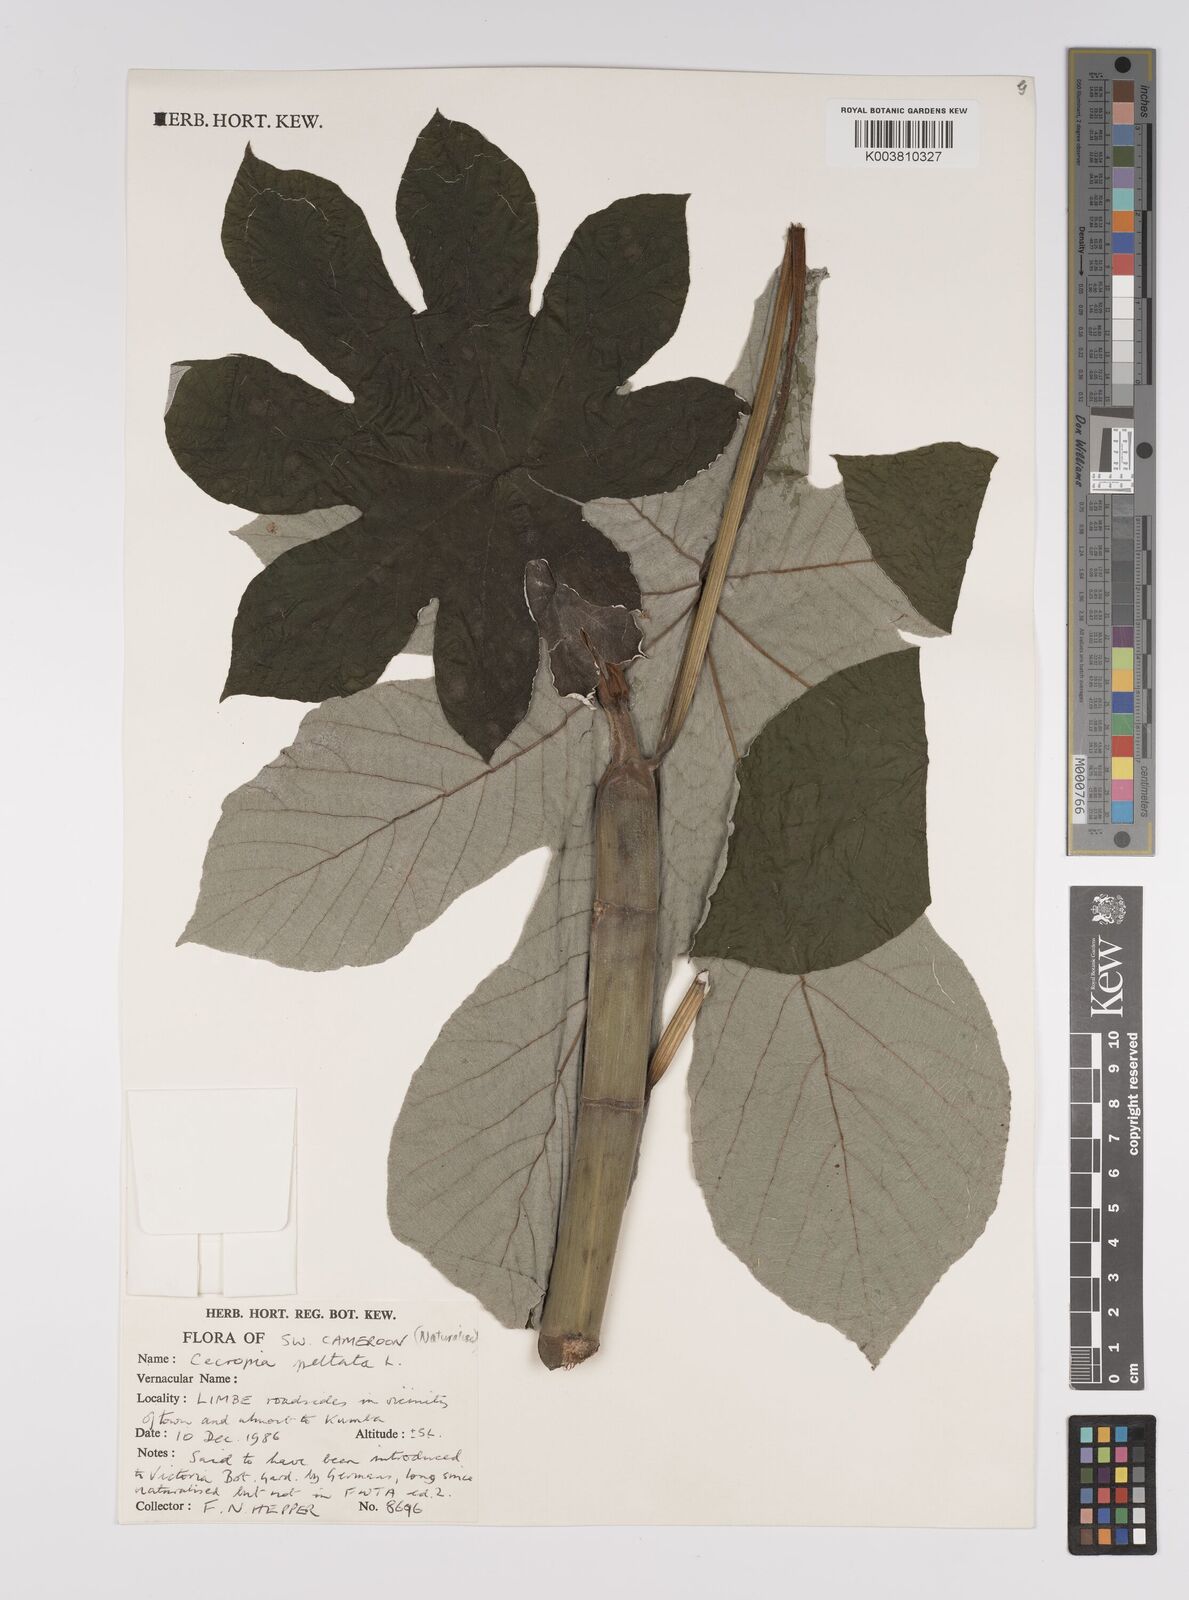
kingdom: Plantae
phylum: Tracheophyta
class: Magnoliopsida
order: Rosales
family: Urticaceae
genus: Cecropia
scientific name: Cecropia peltata
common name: Trumpet-tree
